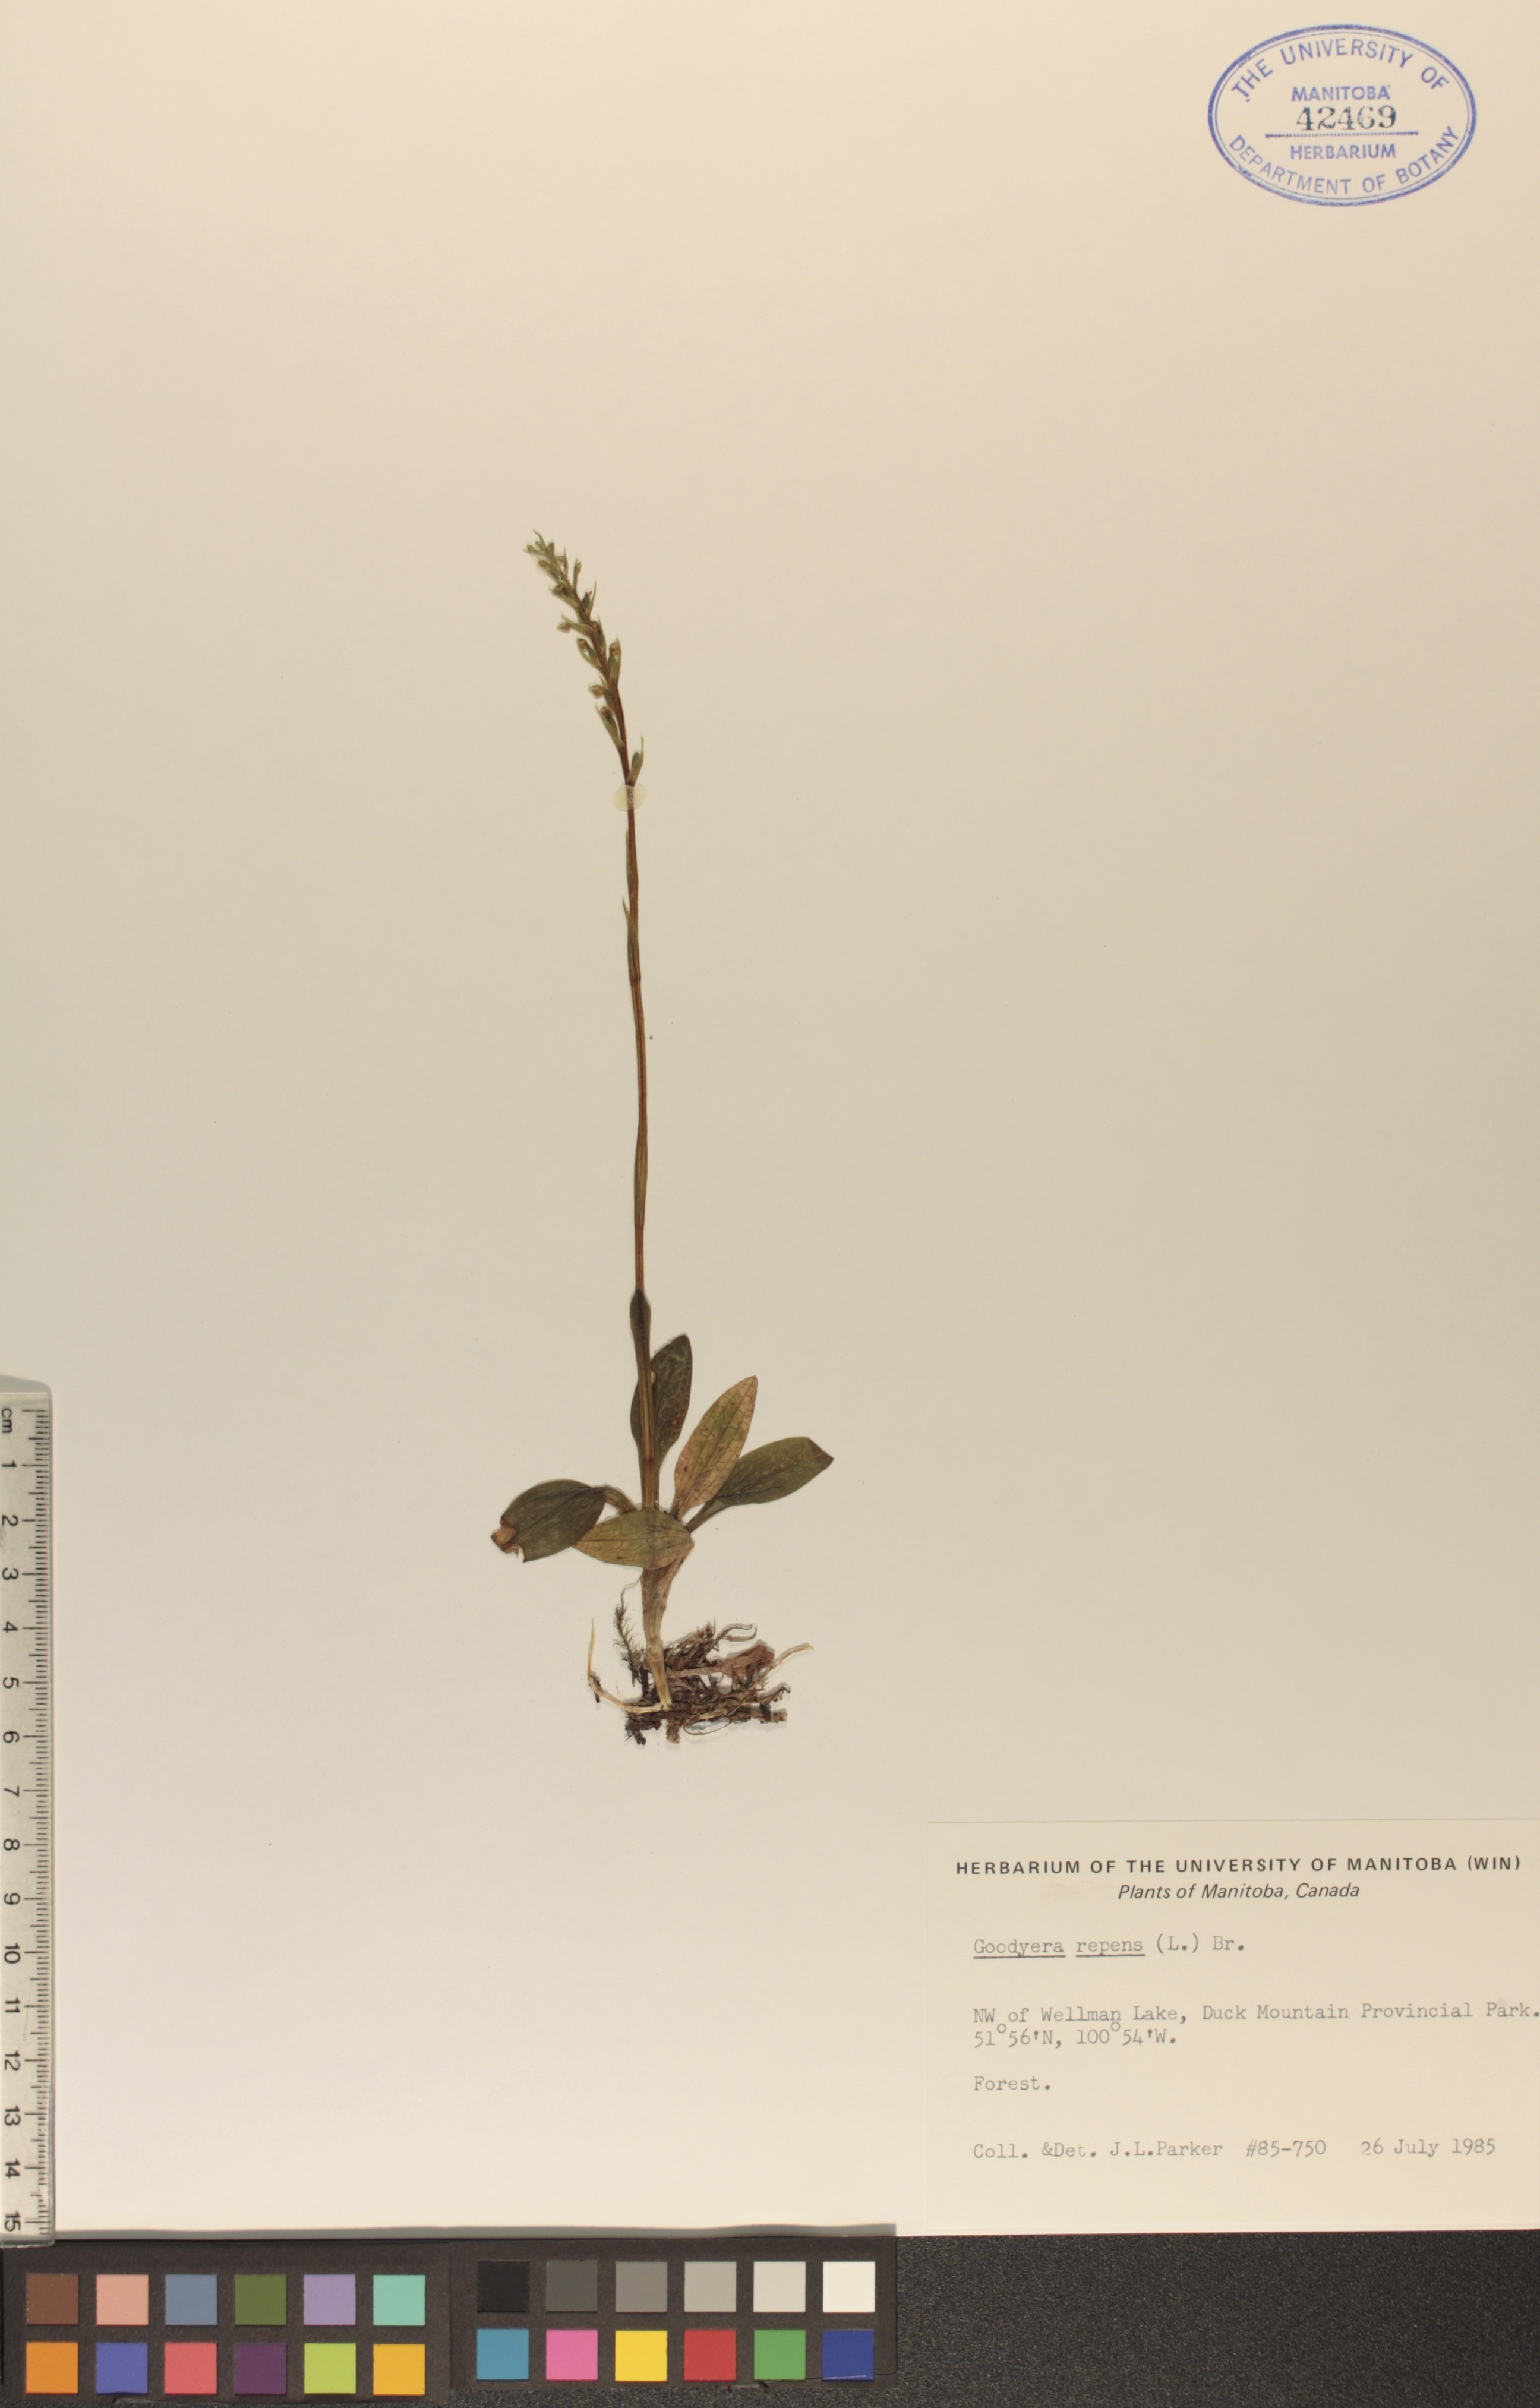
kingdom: Plantae
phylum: Tracheophyta
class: Liliopsida
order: Asparagales
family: Orchidaceae
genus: Goodyera
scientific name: Goodyera repens
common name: Creeping lady's-tresses
